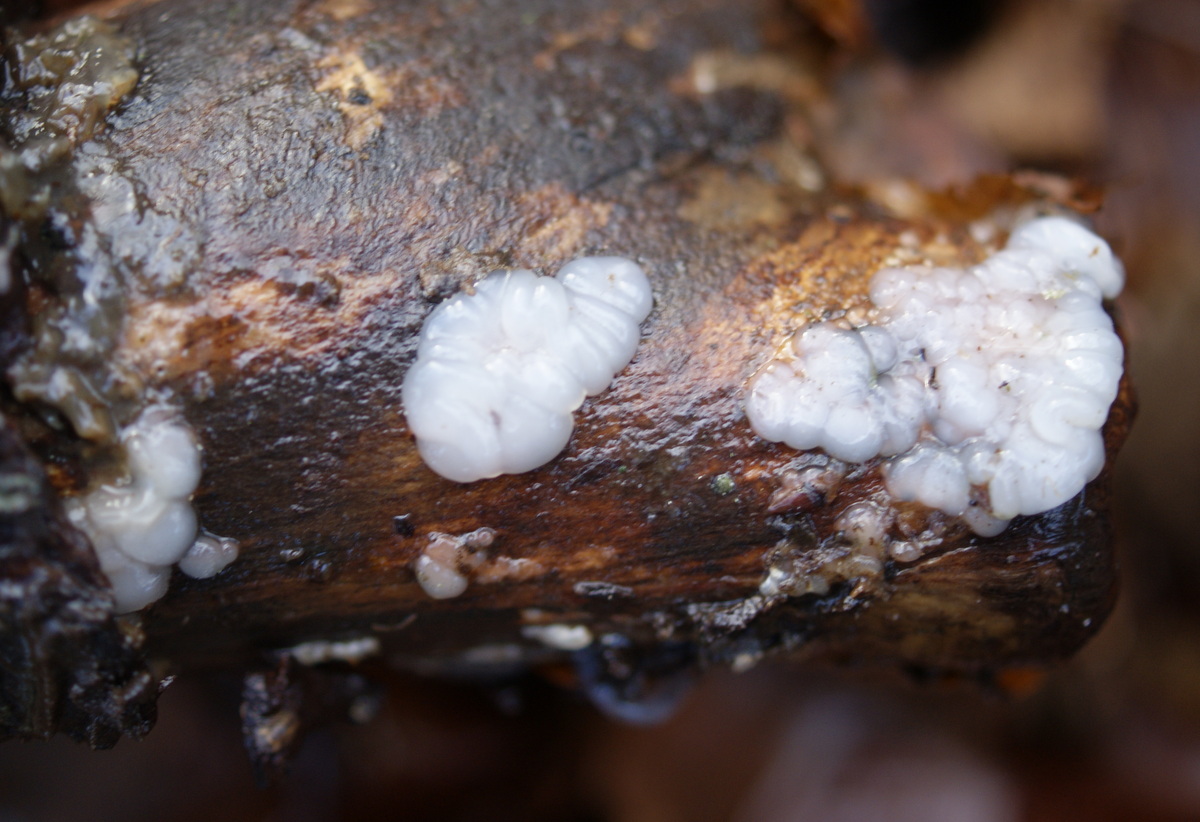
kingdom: Fungi
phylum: Basidiomycota
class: Agaricomycetes
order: Auriculariales
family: Auriculariaceae
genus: Exidia
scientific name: Exidia thuretiana
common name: hvidlig bævretop
